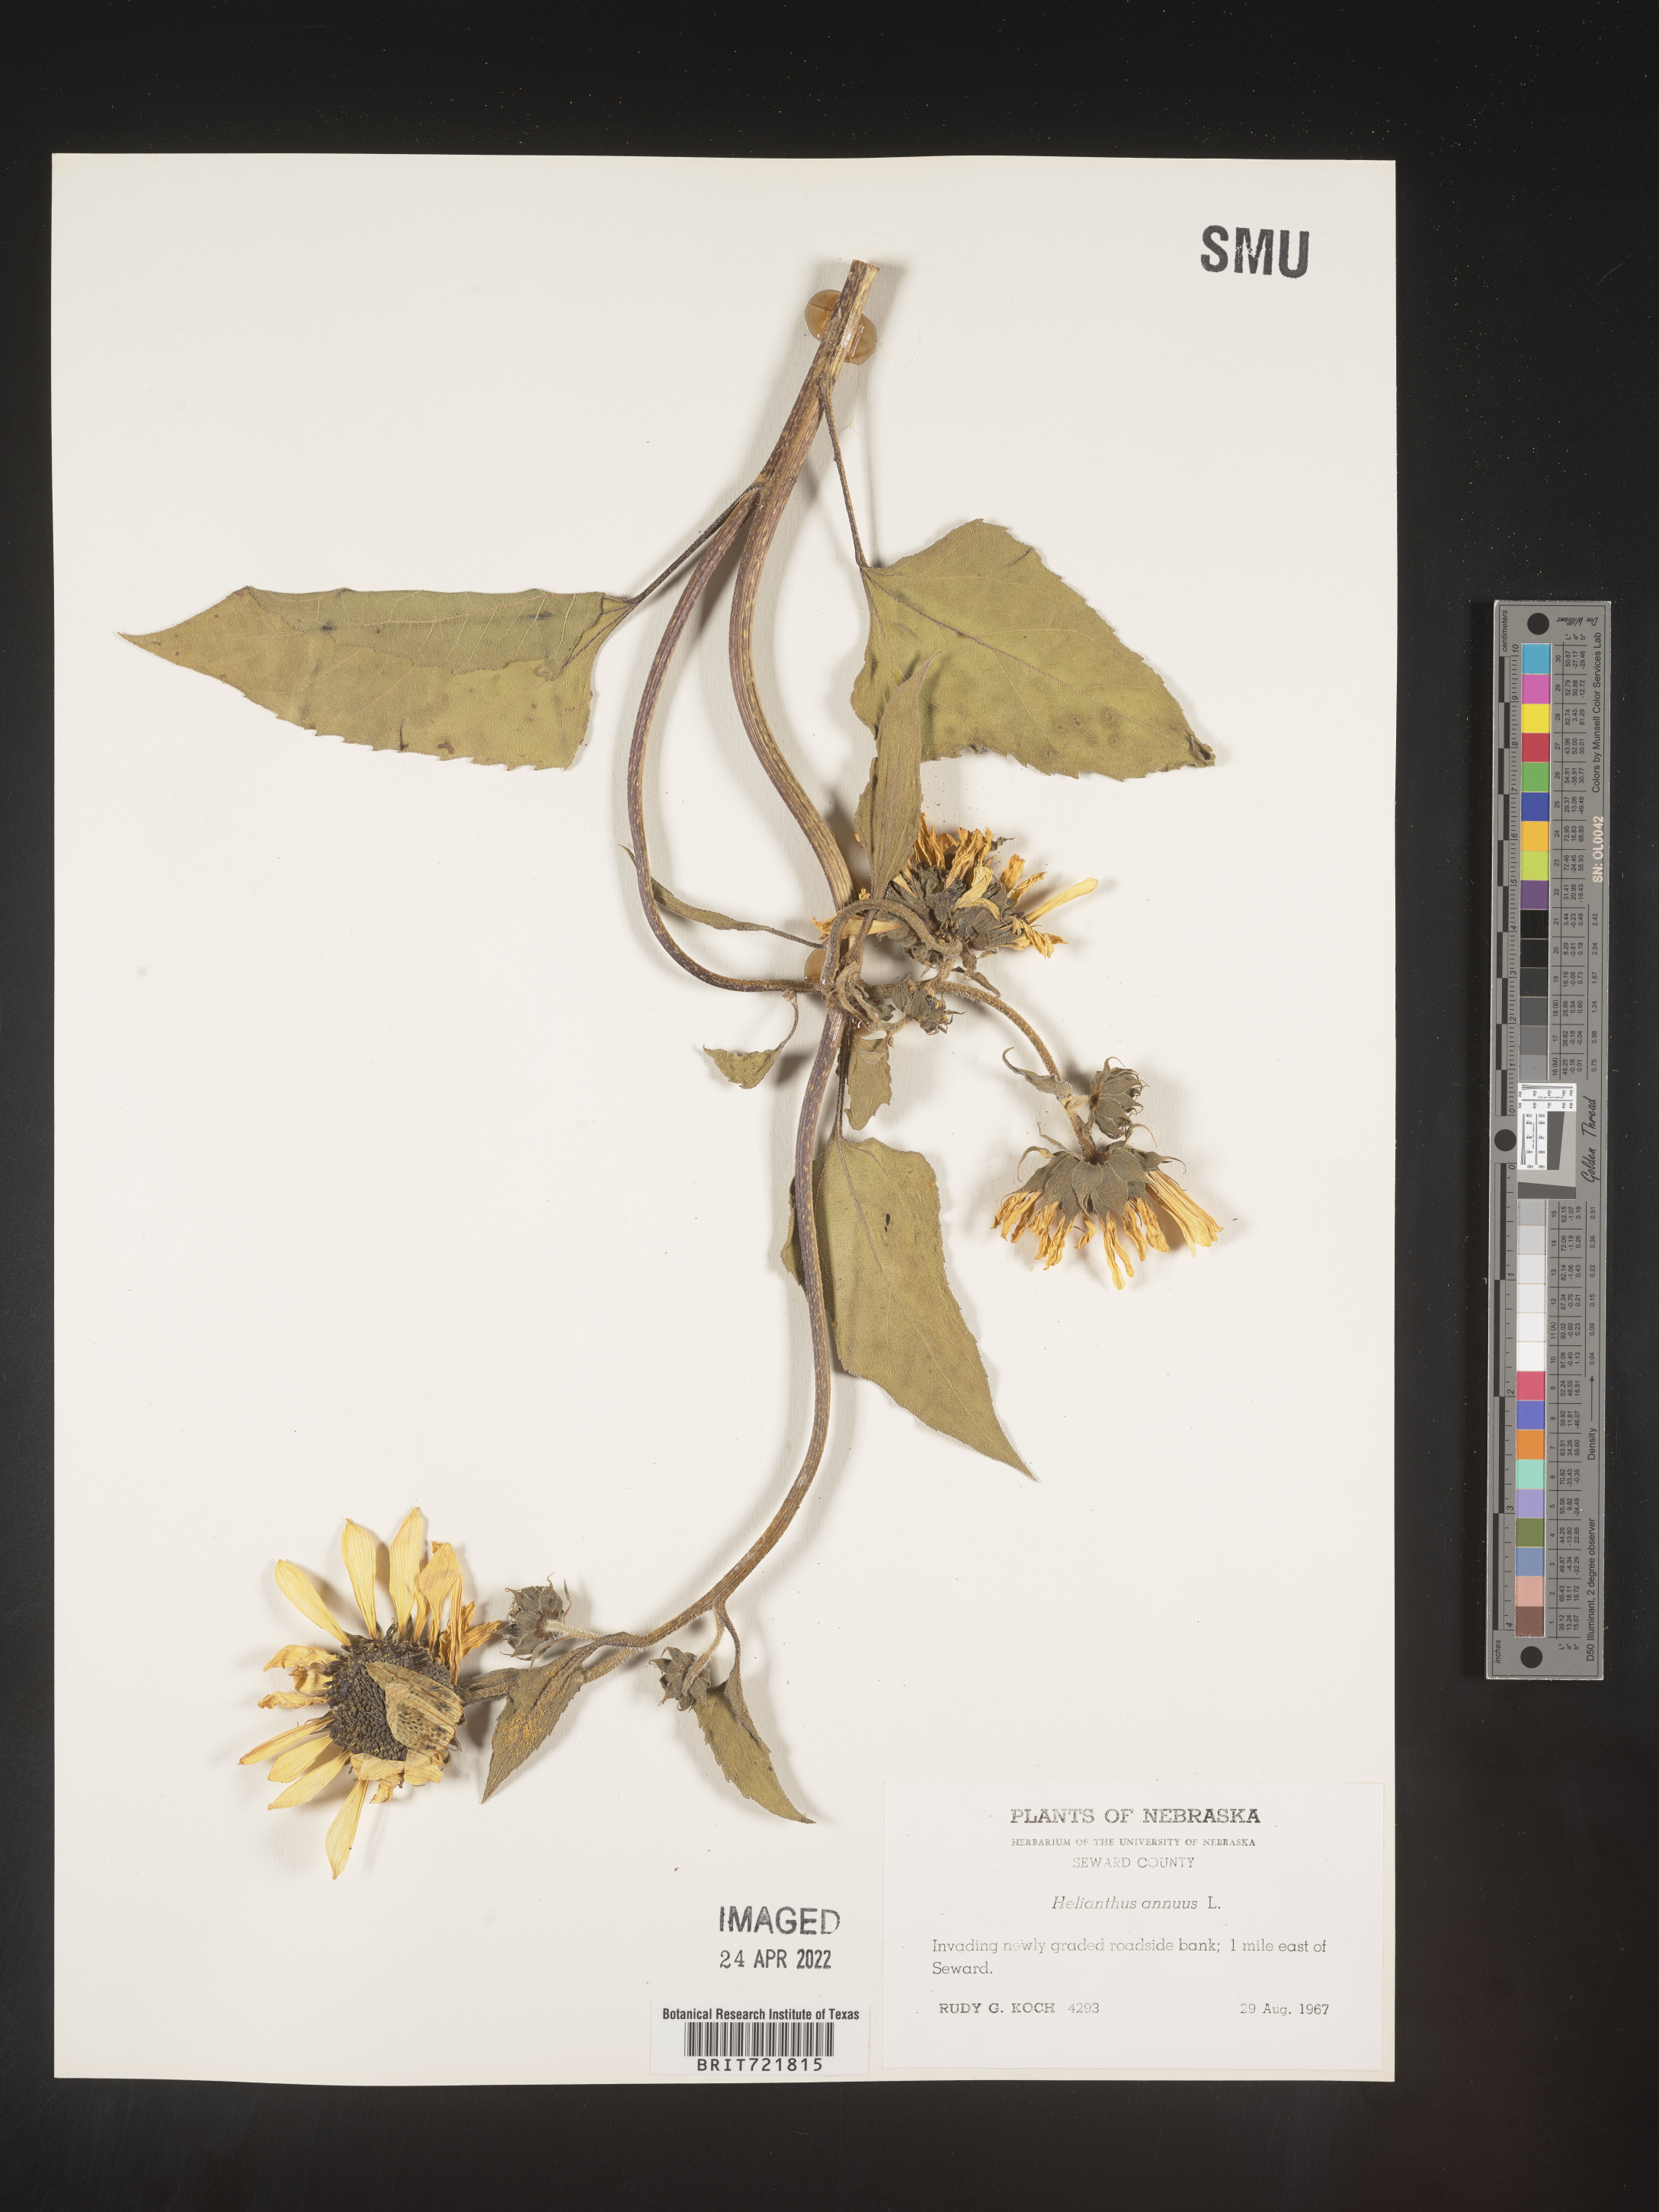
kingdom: Plantae
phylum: Tracheophyta
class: Magnoliopsida
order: Asterales
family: Asteraceae
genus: Helianthus
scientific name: Helianthus annuus
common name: Sunflower
